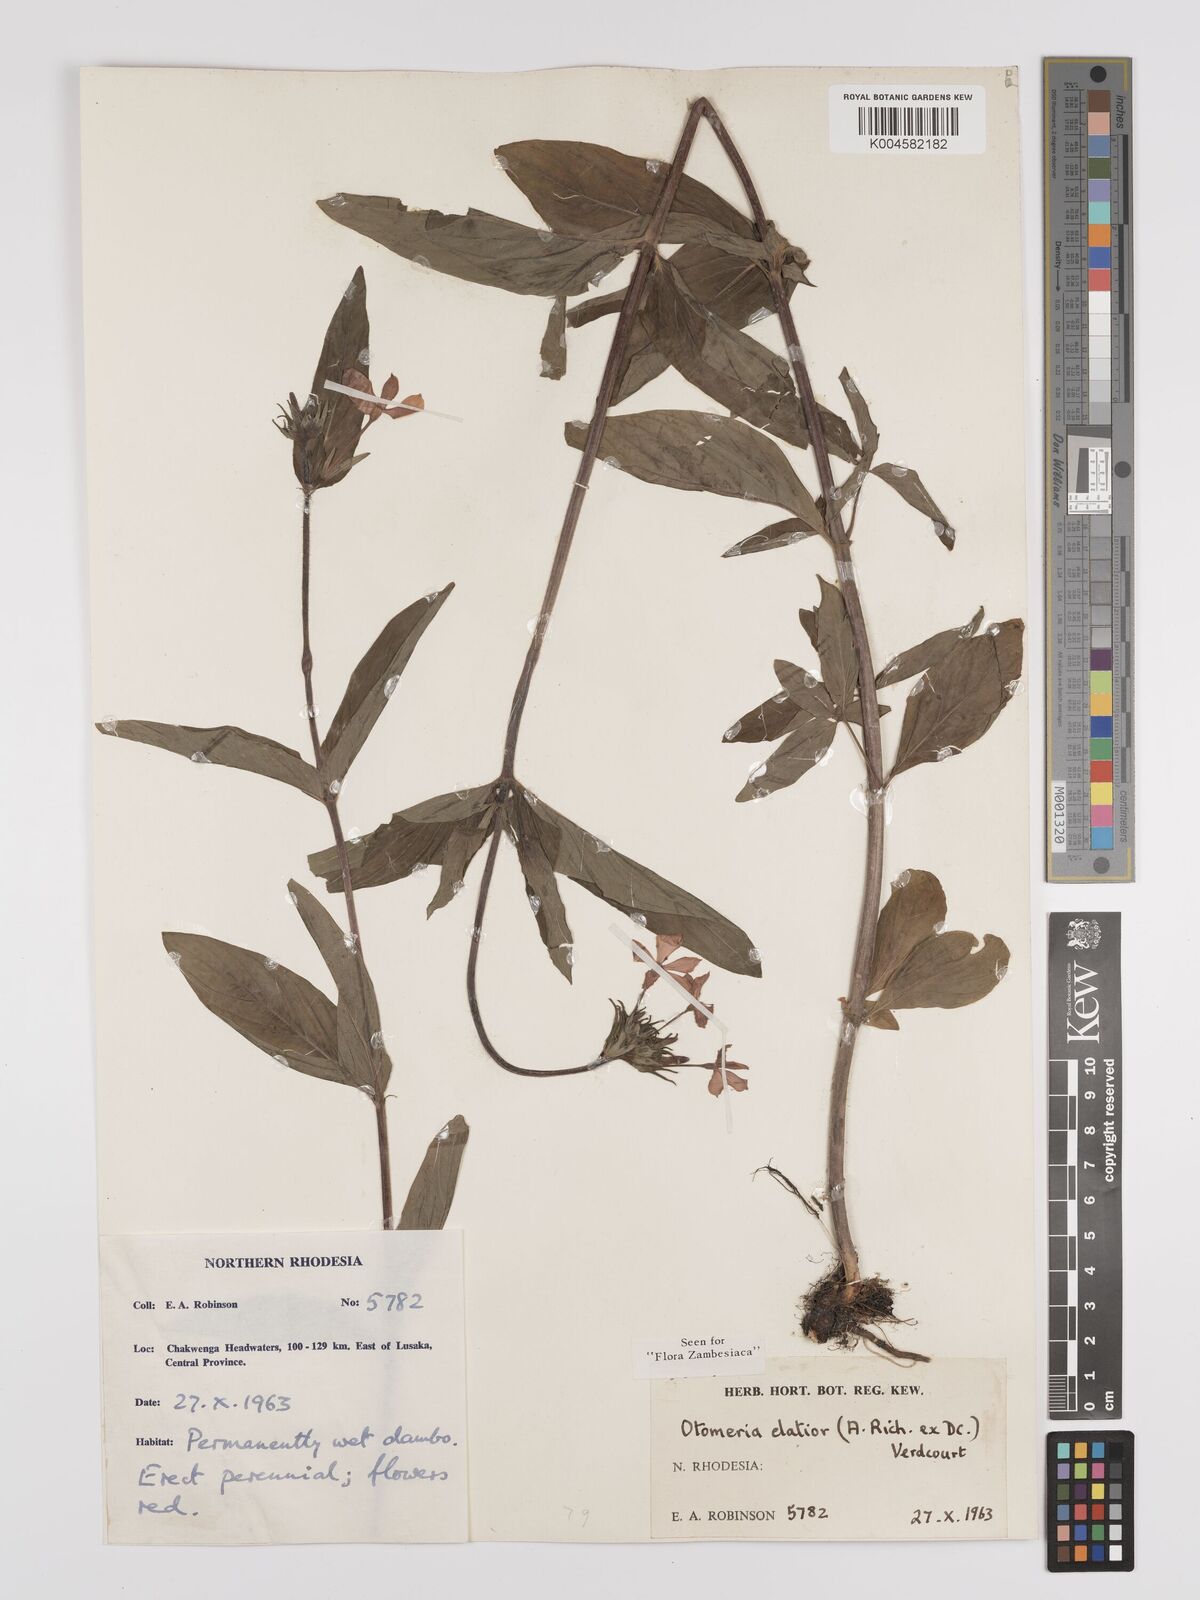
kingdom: Plantae
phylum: Tracheophyta
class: Magnoliopsida
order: Gentianales
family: Rubiaceae
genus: Otomeria
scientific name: Otomeria elatior
